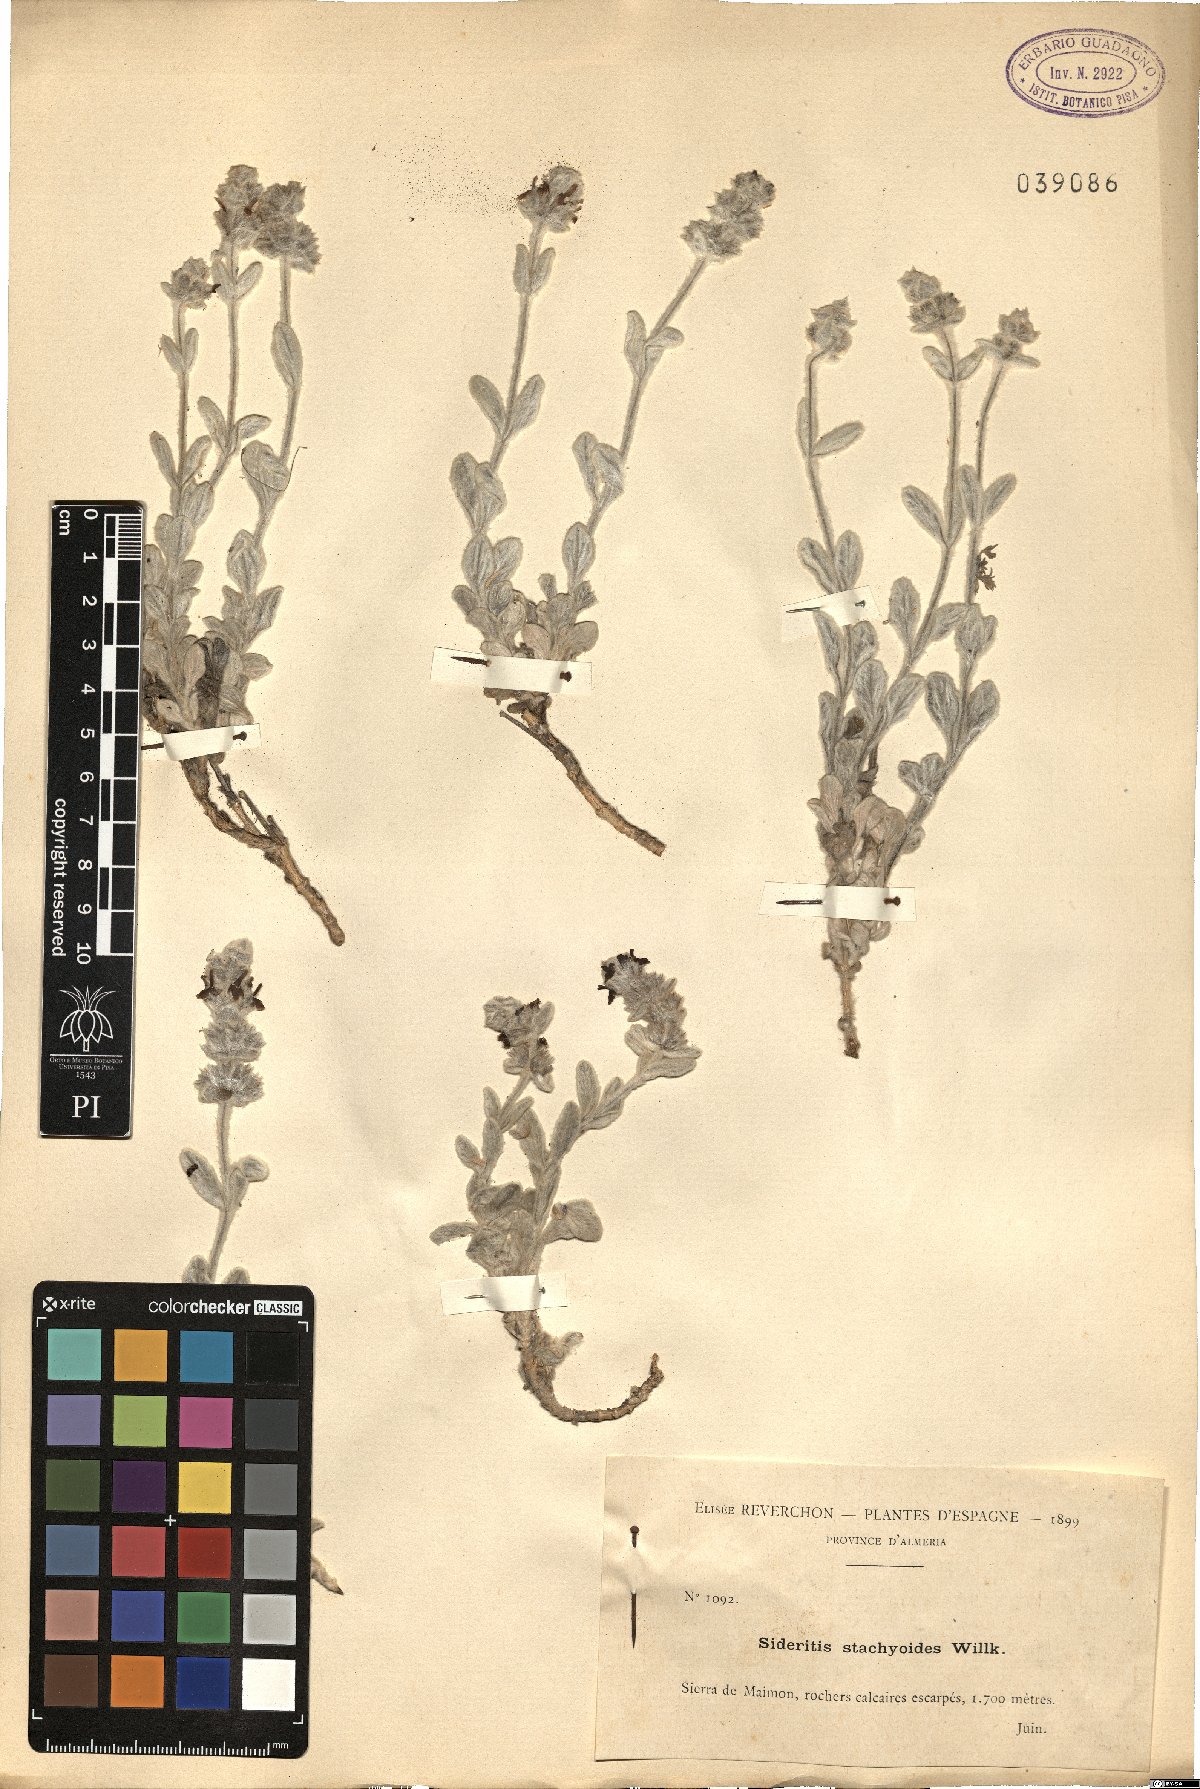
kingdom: Plantae
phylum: Tracheophyta
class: Magnoliopsida
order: Lamiales
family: Lamiaceae
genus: Sideritis
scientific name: Sideritis stachydioides
